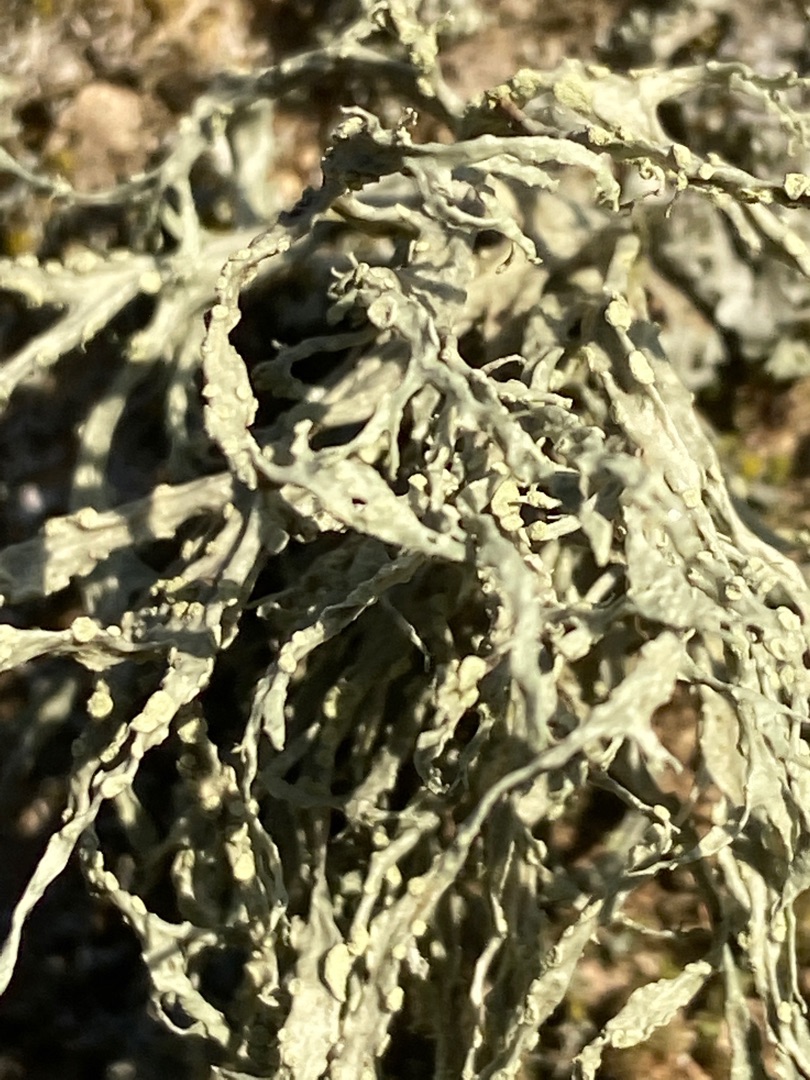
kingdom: Fungi
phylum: Ascomycota
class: Lecanoromycetes
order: Lecanorales
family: Ramalinaceae
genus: Ramalina
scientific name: Ramalina farinacea
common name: Melet grenlav
